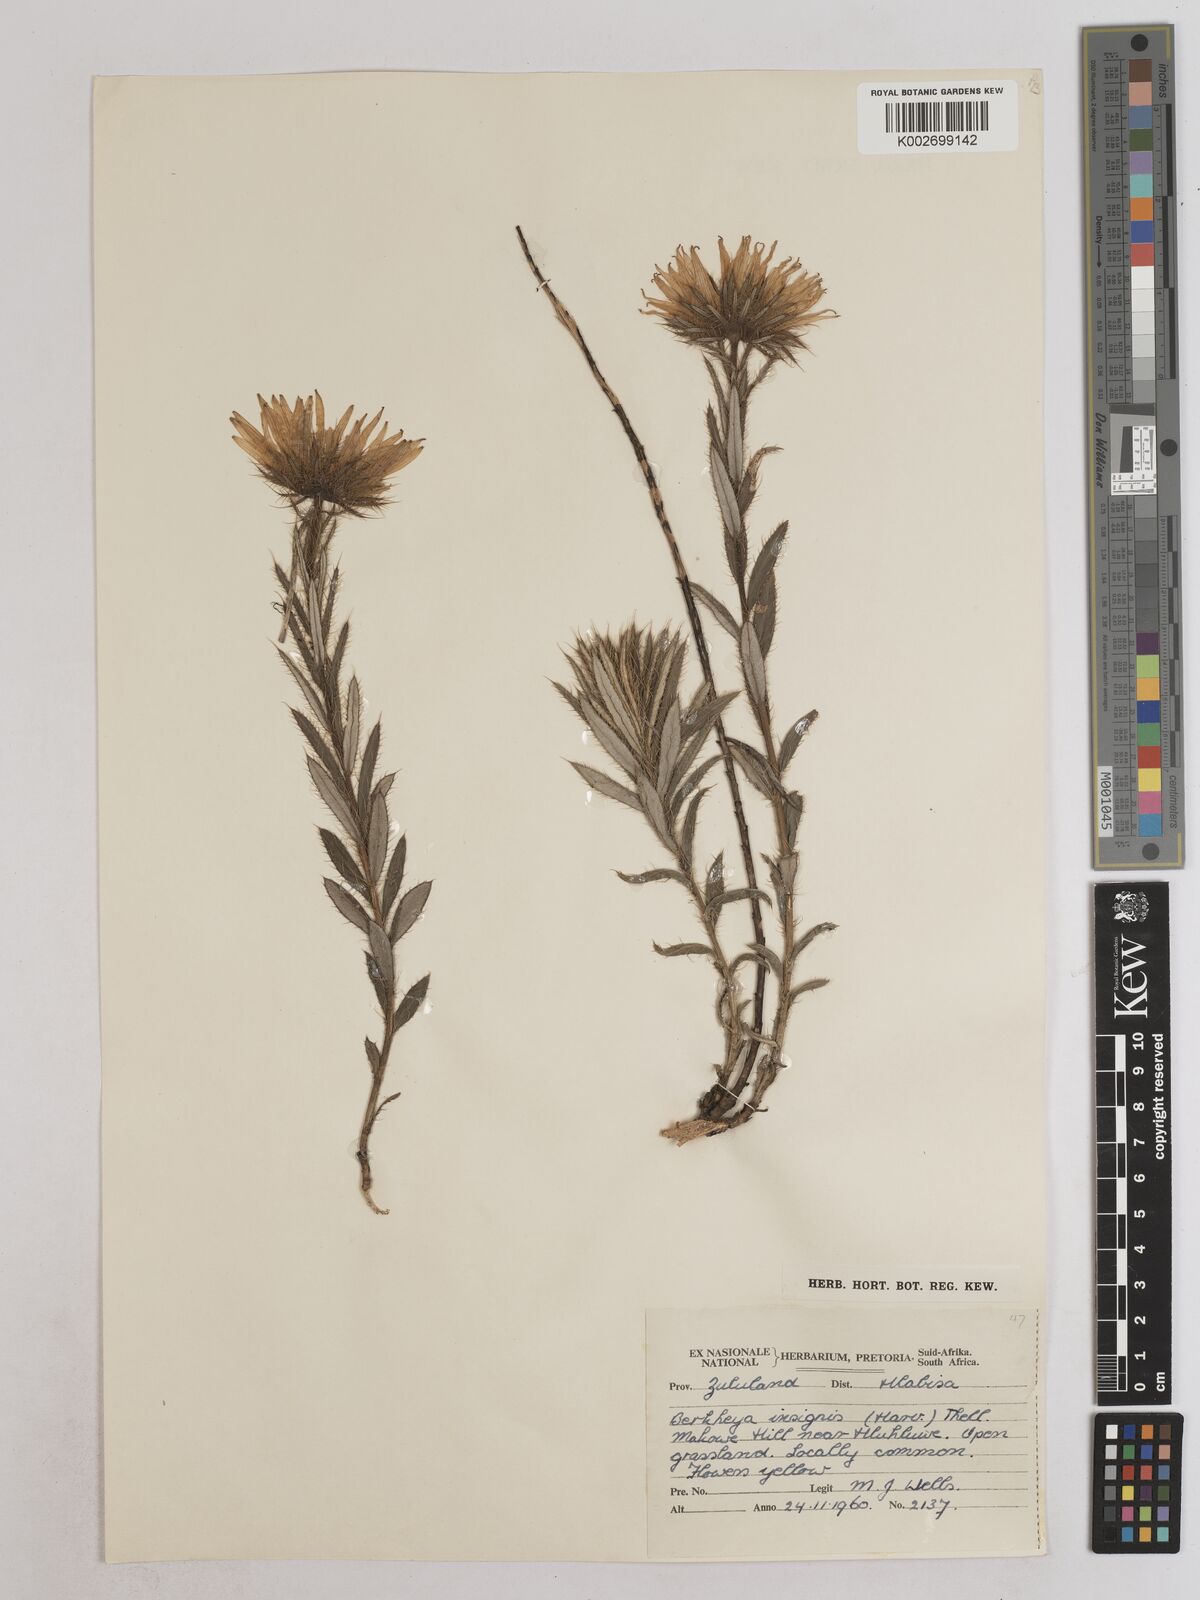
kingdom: Plantae
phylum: Tracheophyta
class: Magnoliopsida
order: Asterales
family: Asteraceae
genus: Berkheya
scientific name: Berkheya insignis
